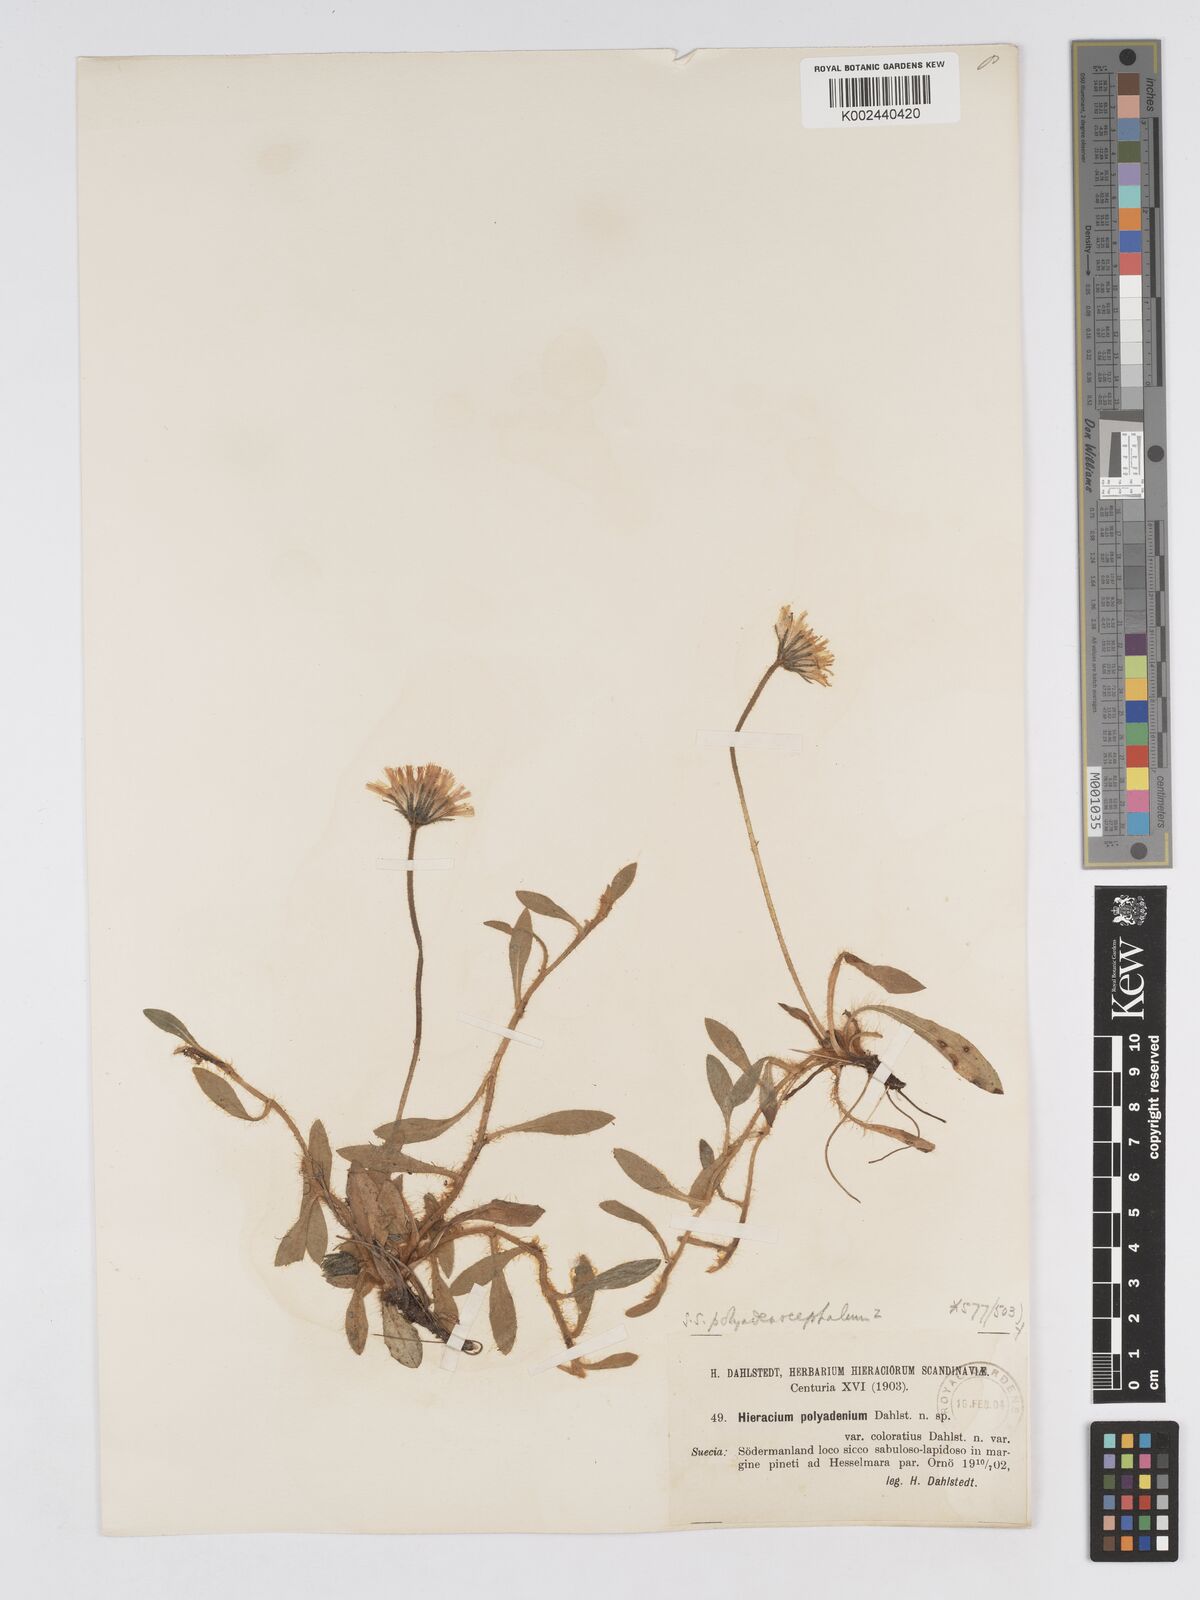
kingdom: Plantae
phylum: Tracheophyta
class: Magnoliopsida
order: Asterales
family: Asteraceae
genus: Hieracium
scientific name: Hieracium
